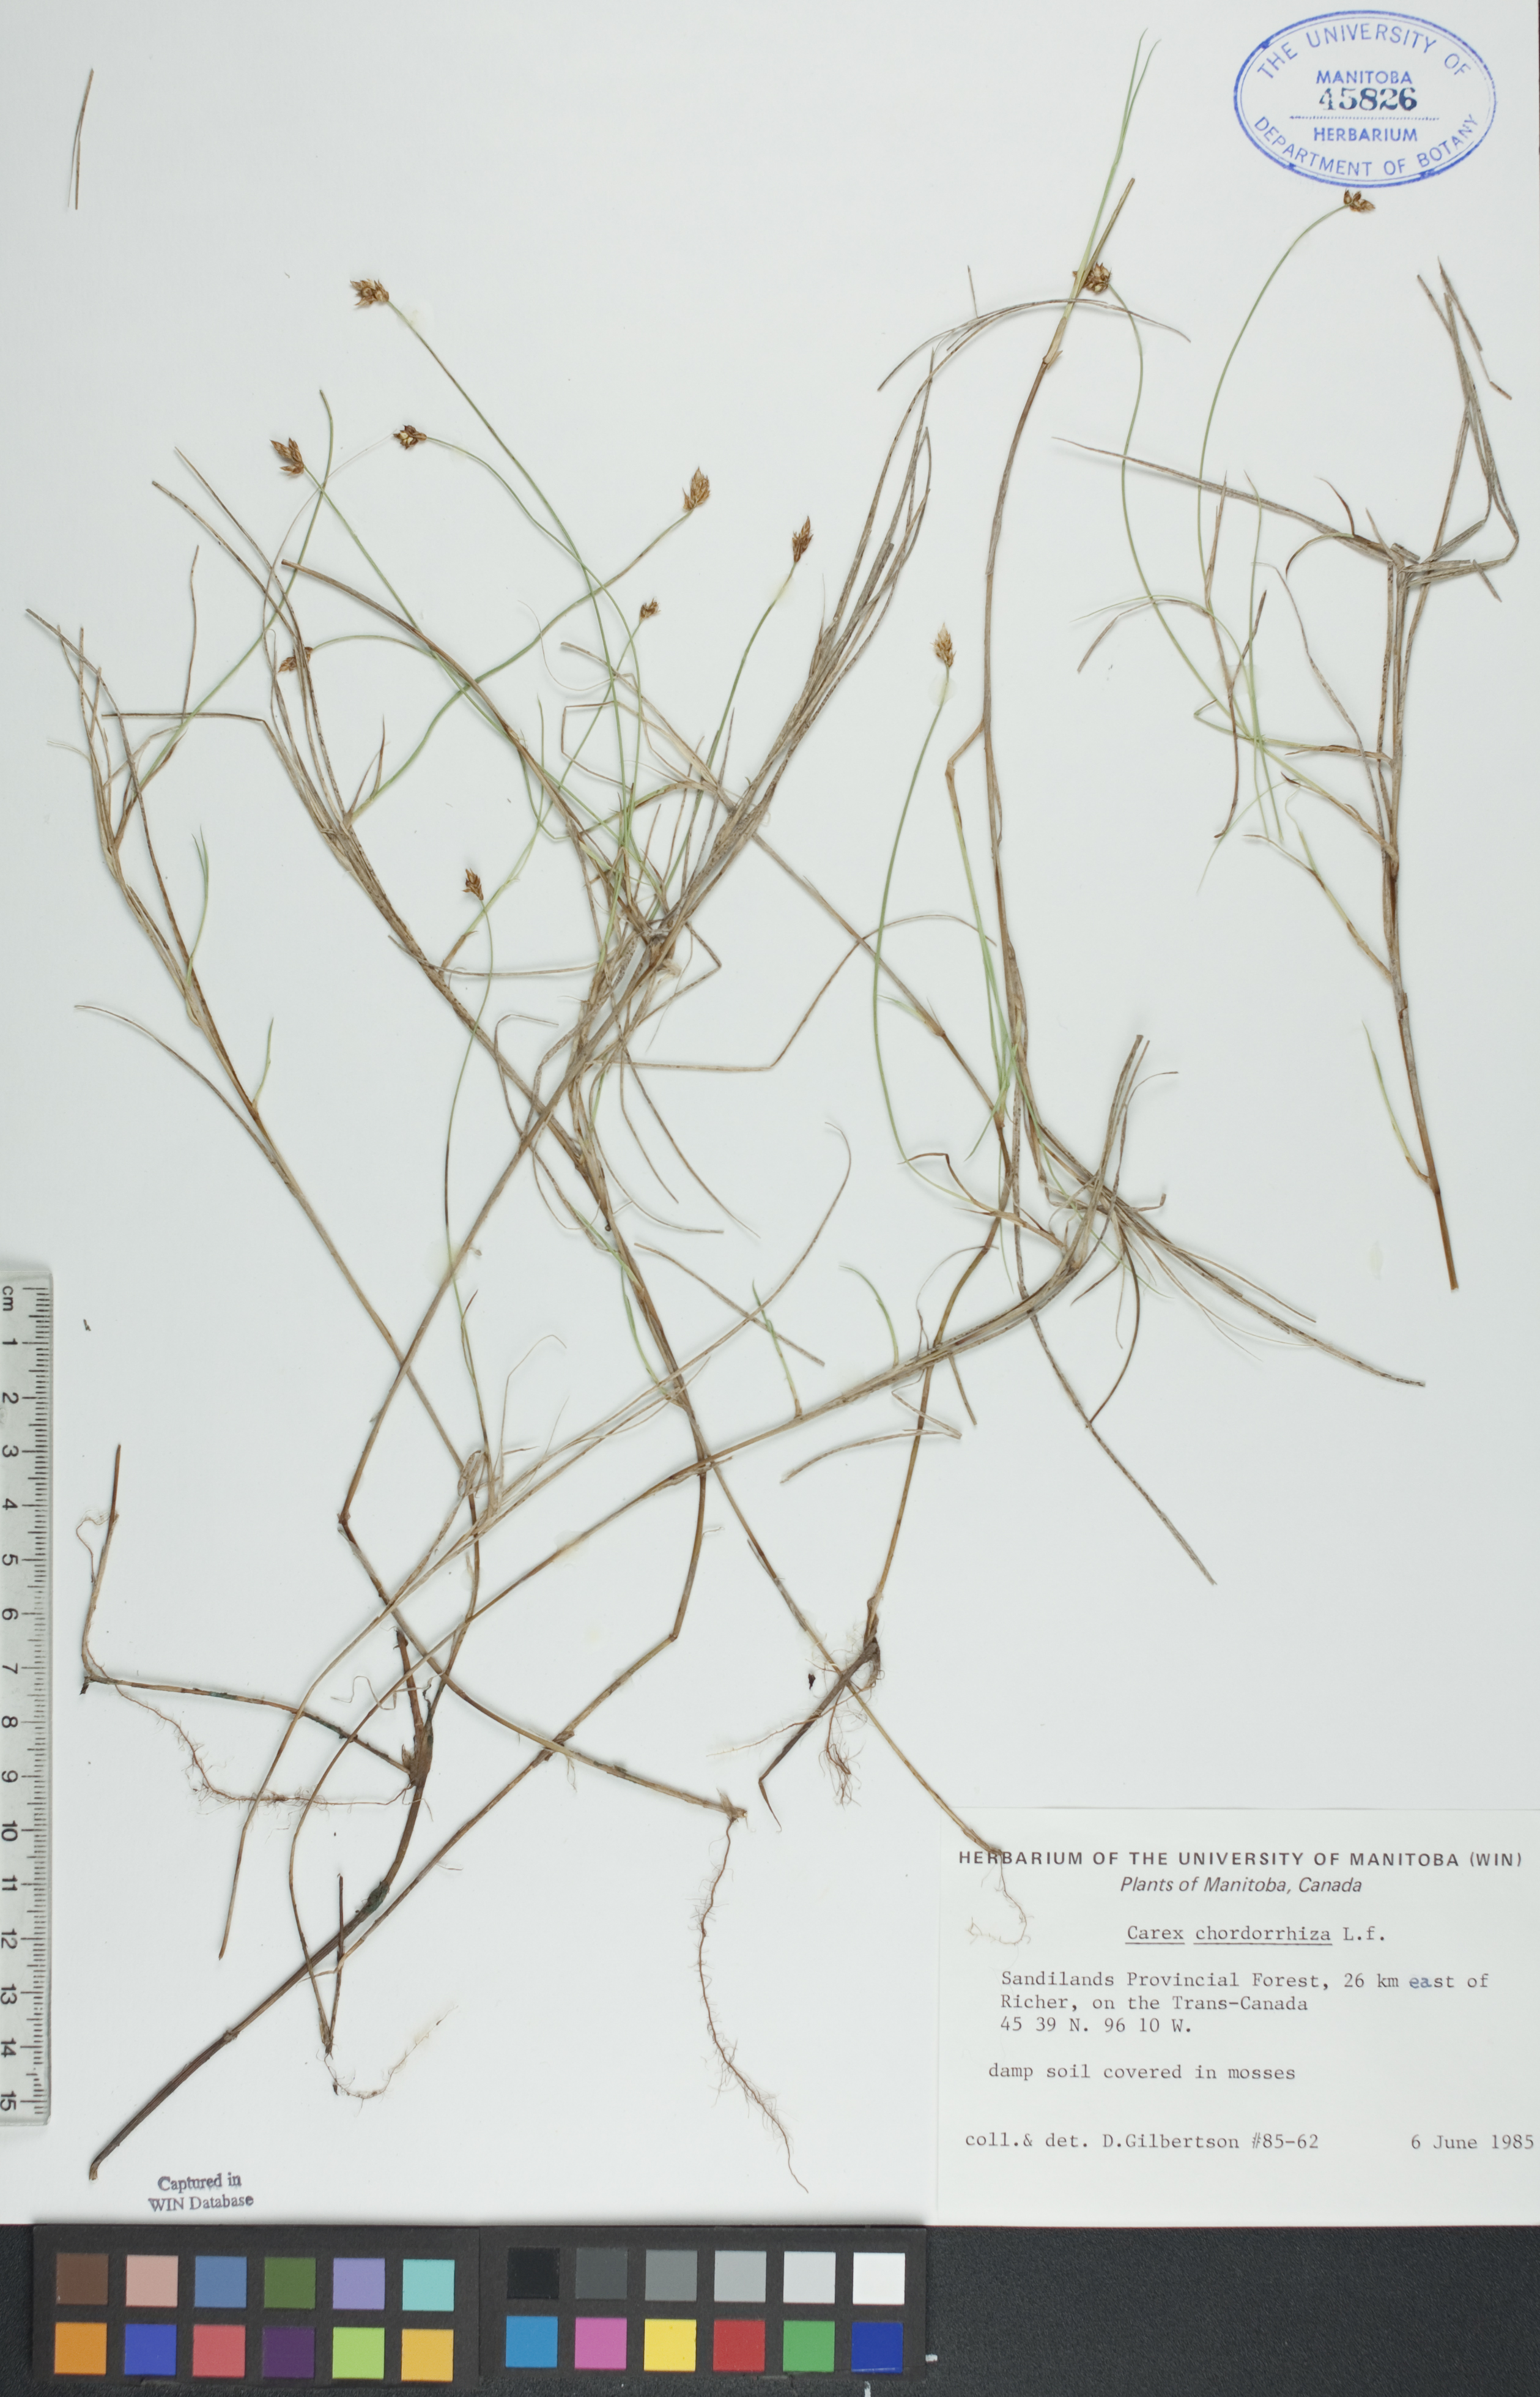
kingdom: Plantae
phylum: Tracheophyta
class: Liliopsida
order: Poales
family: Cyperaceae
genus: Carex
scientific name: Carex chordorrhiza
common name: String sedge
